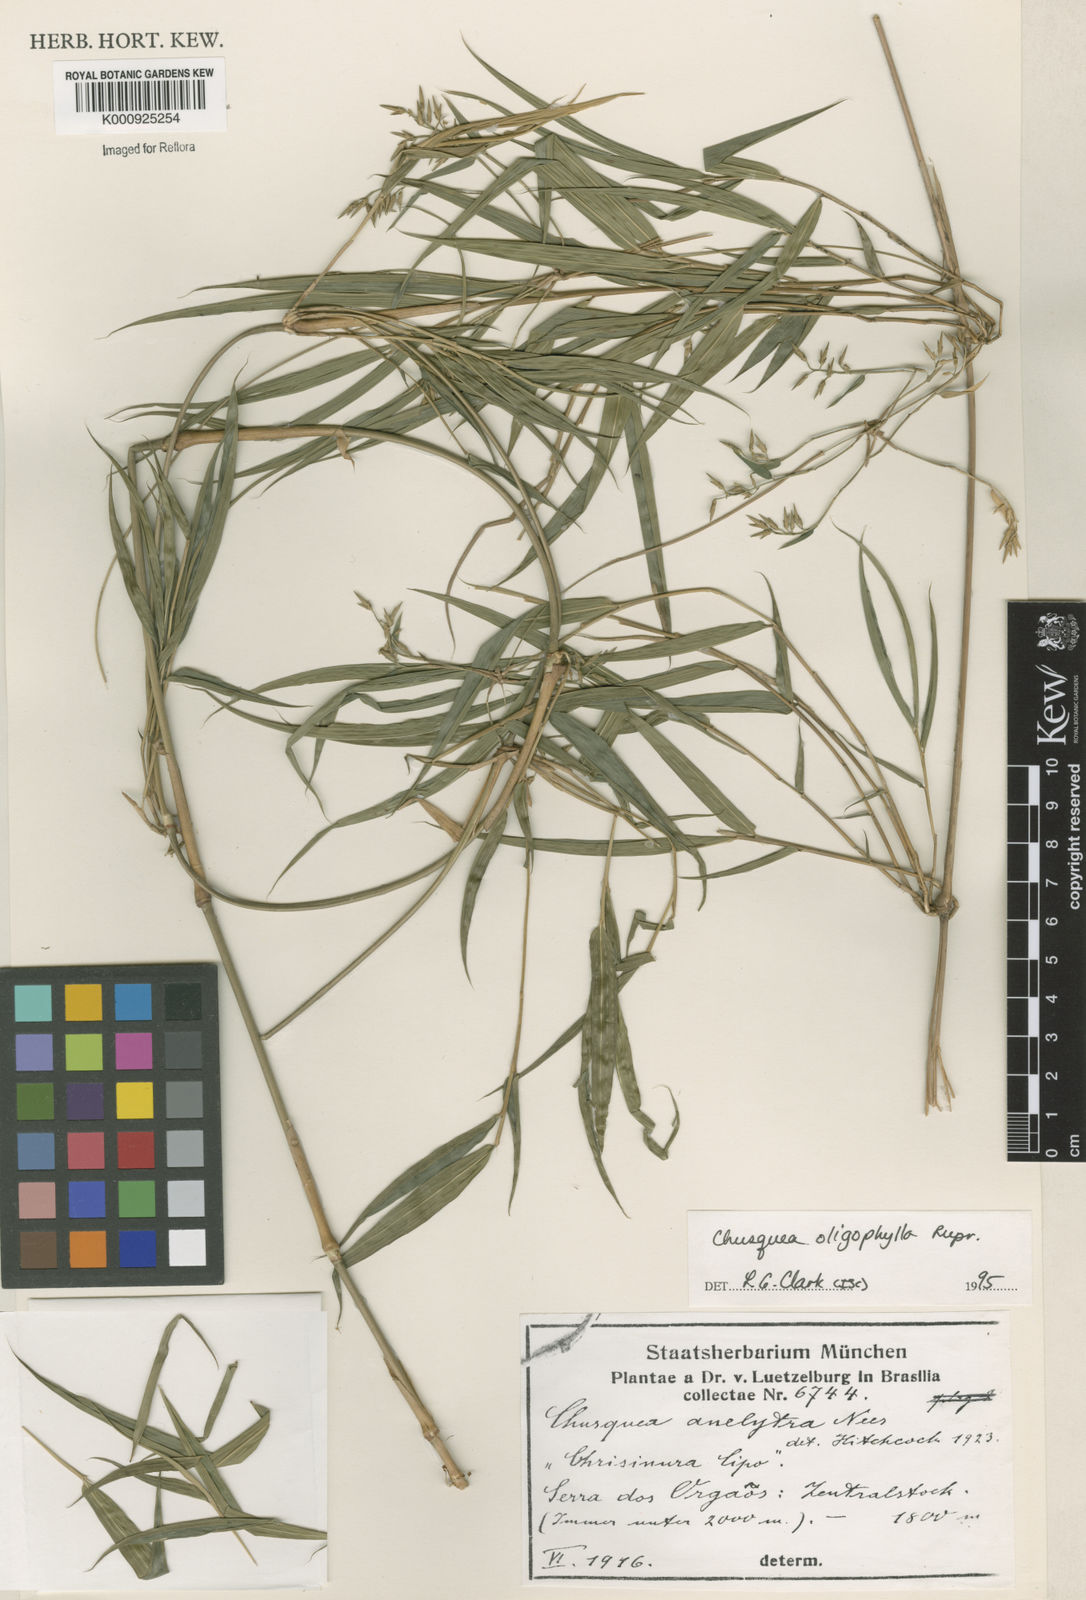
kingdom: Plantae
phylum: Tracheophyta
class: Liliopsida
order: Poales
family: Poaceae
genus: Chusquea
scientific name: Chusquea oligophylla
